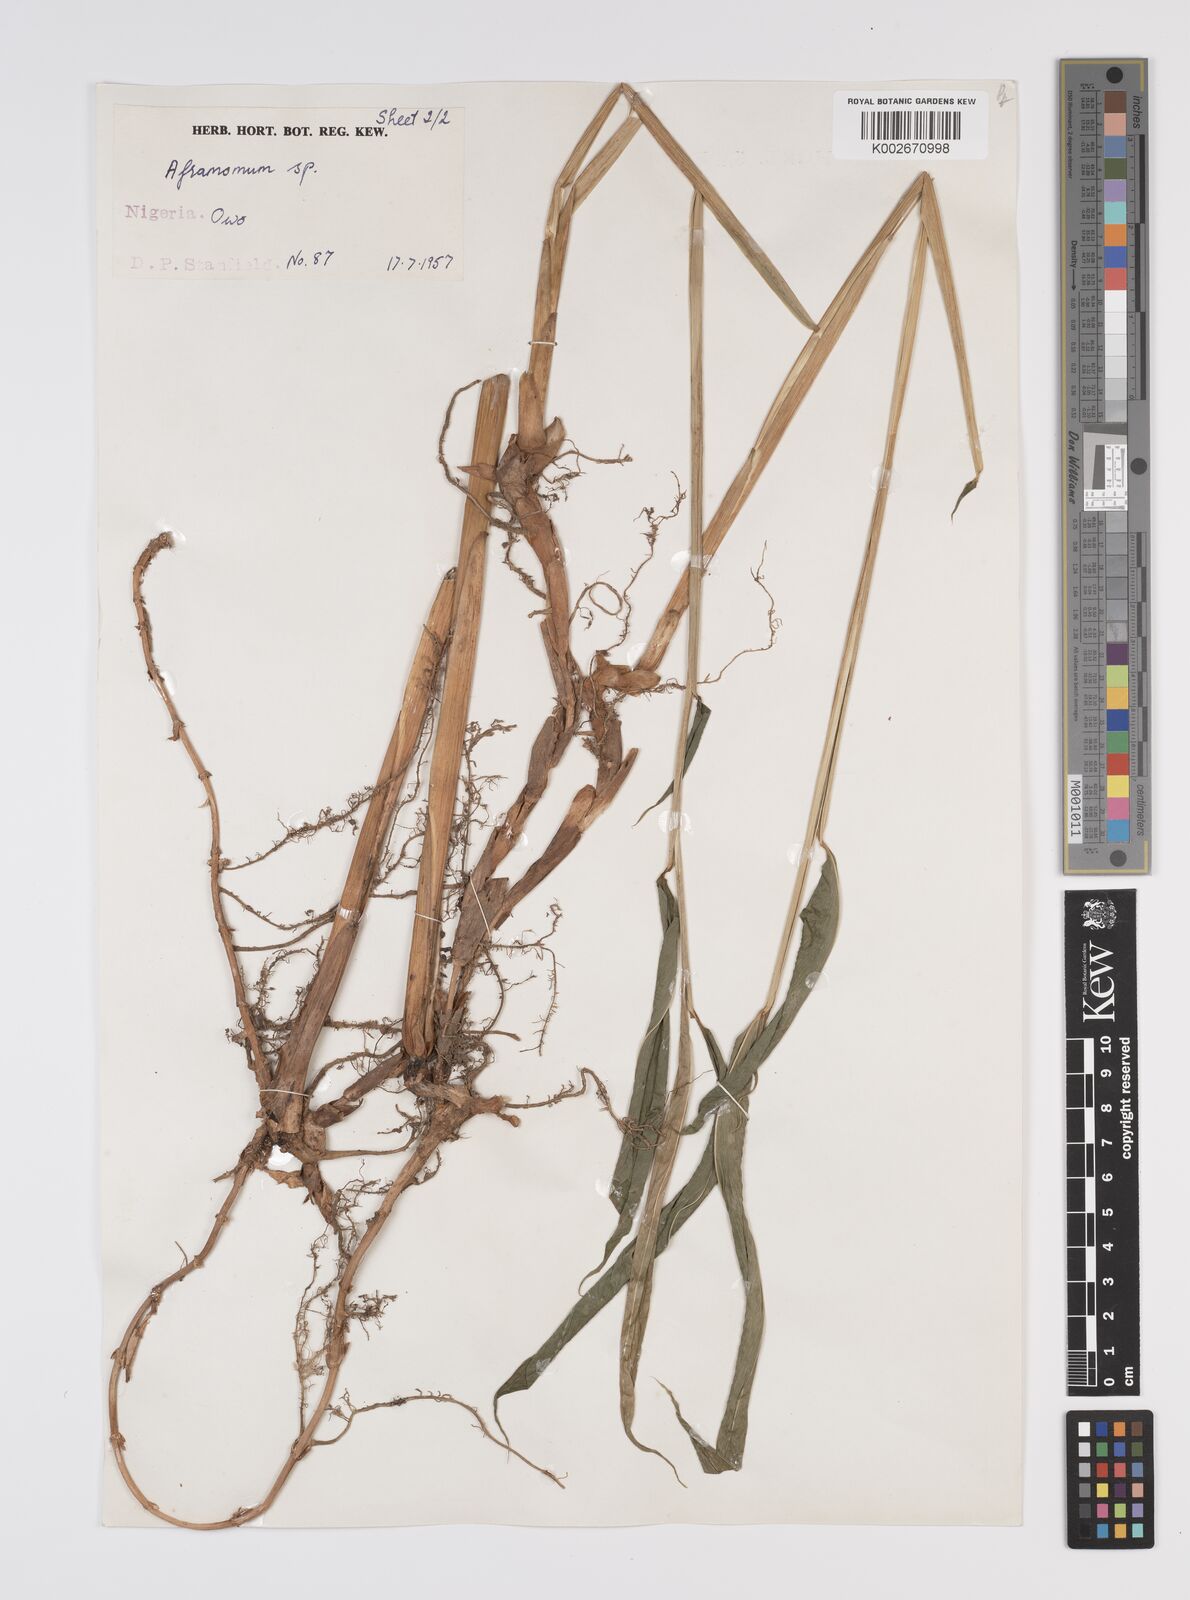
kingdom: Plantae
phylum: Tracheophyta
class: Liliopsida
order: Zingiberales
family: Zingiberaceae
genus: Aframomum
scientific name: Aframomum stanfieldii
